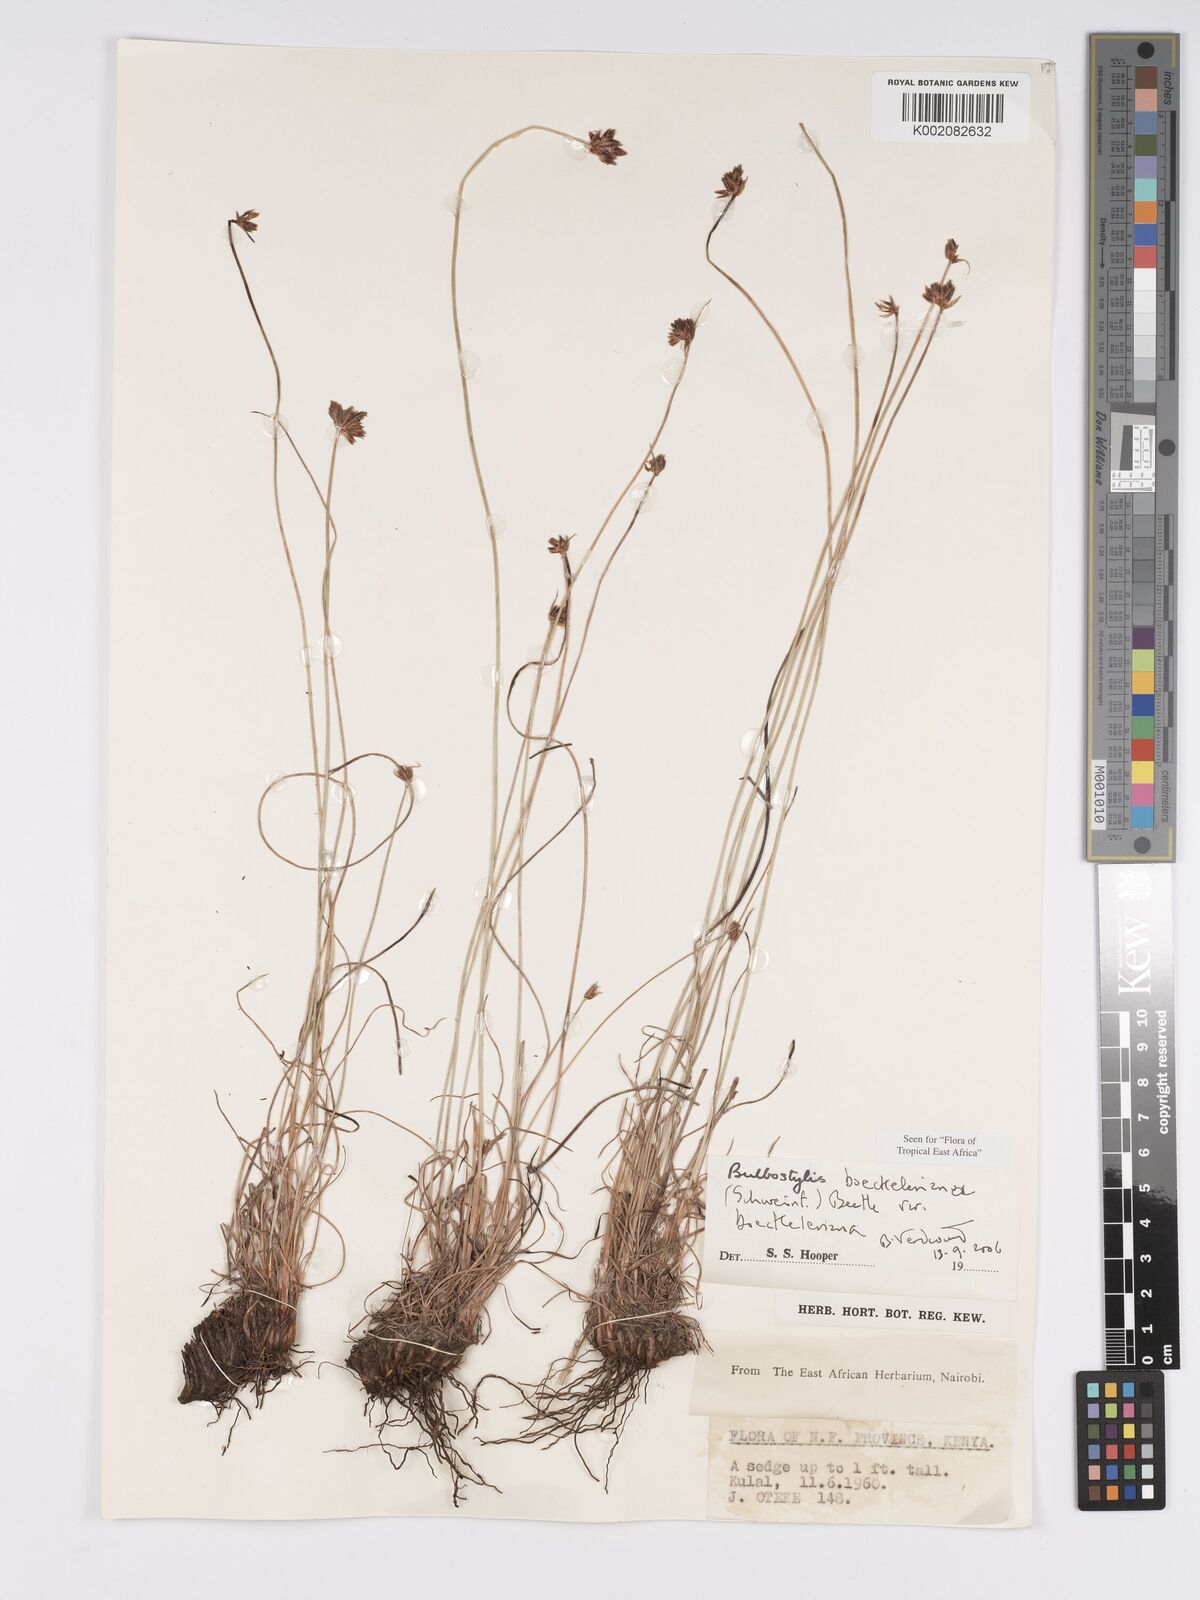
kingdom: Plantae
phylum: Tracheophyta
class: Liliopsida
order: Poales
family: Cyperaceae
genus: Bulbostylis
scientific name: Bulbostylis boeckeleriana
